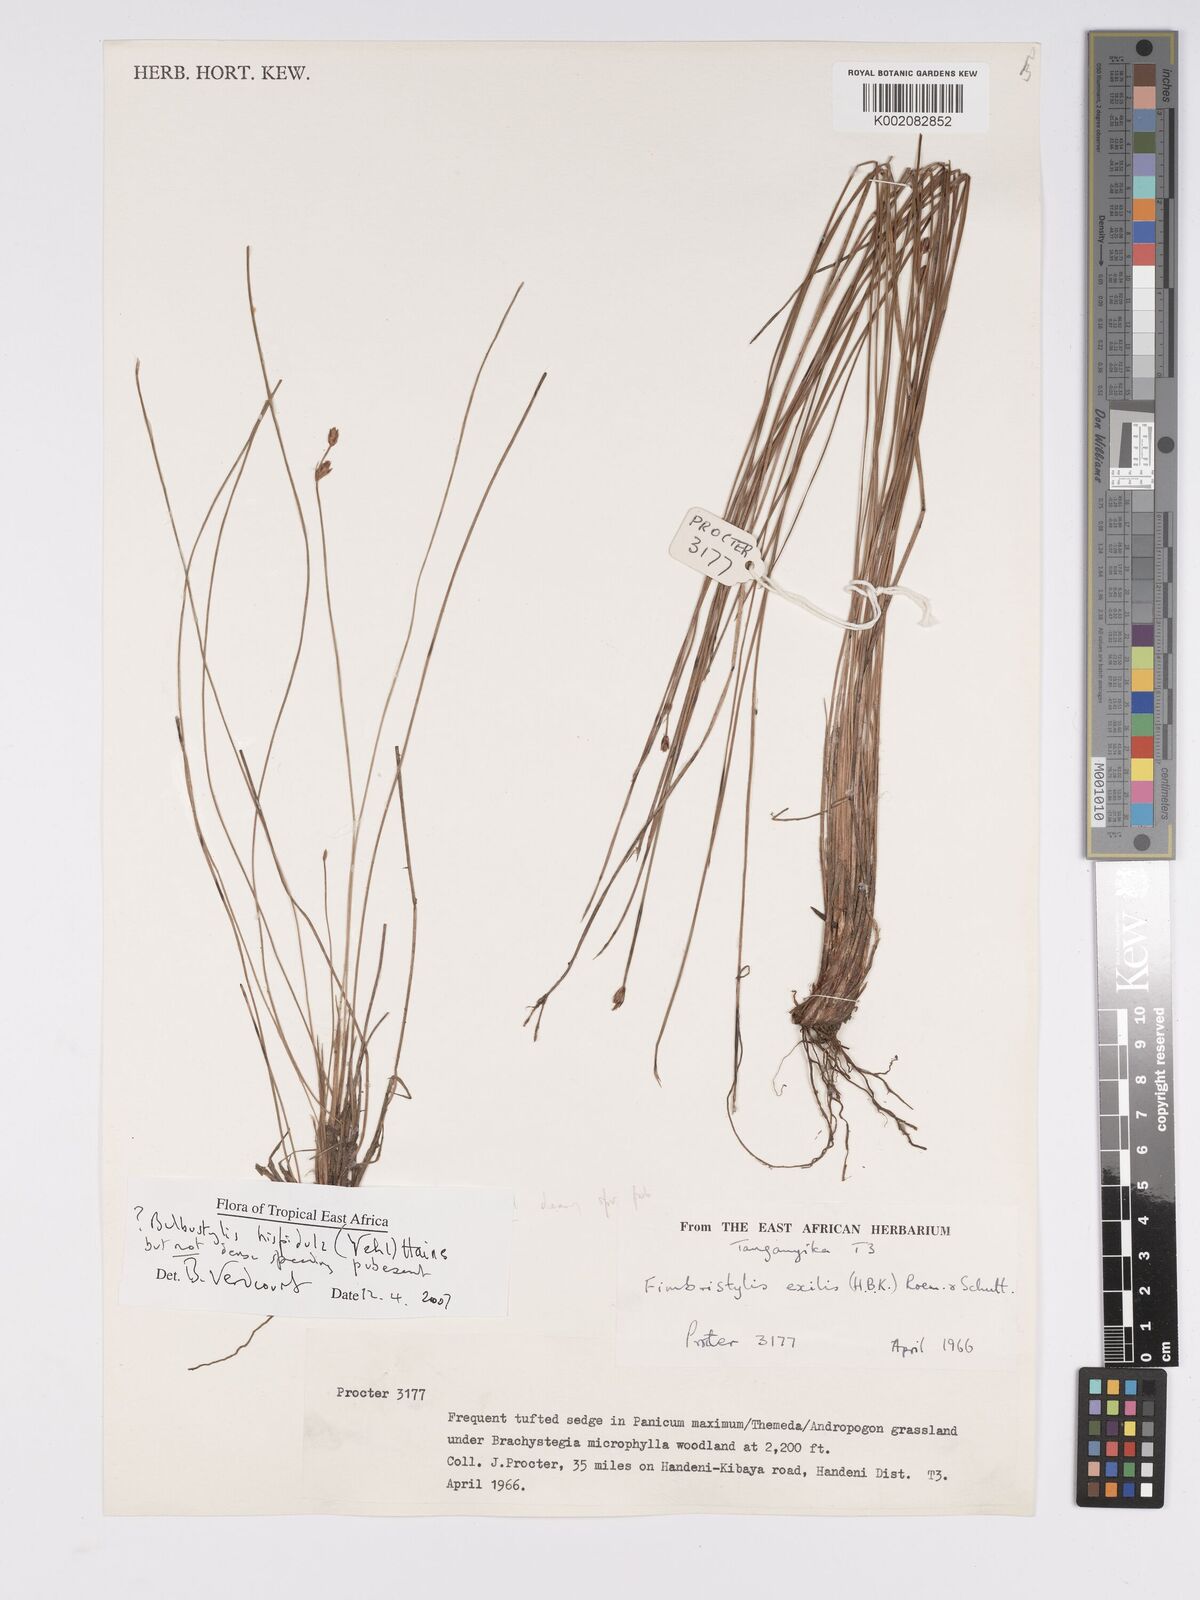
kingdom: Plantae
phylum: Tracheophyta
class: Liliopsida
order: Poales
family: Cyperaceae
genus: Bulbostylis
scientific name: Bulbostylis hispidula
